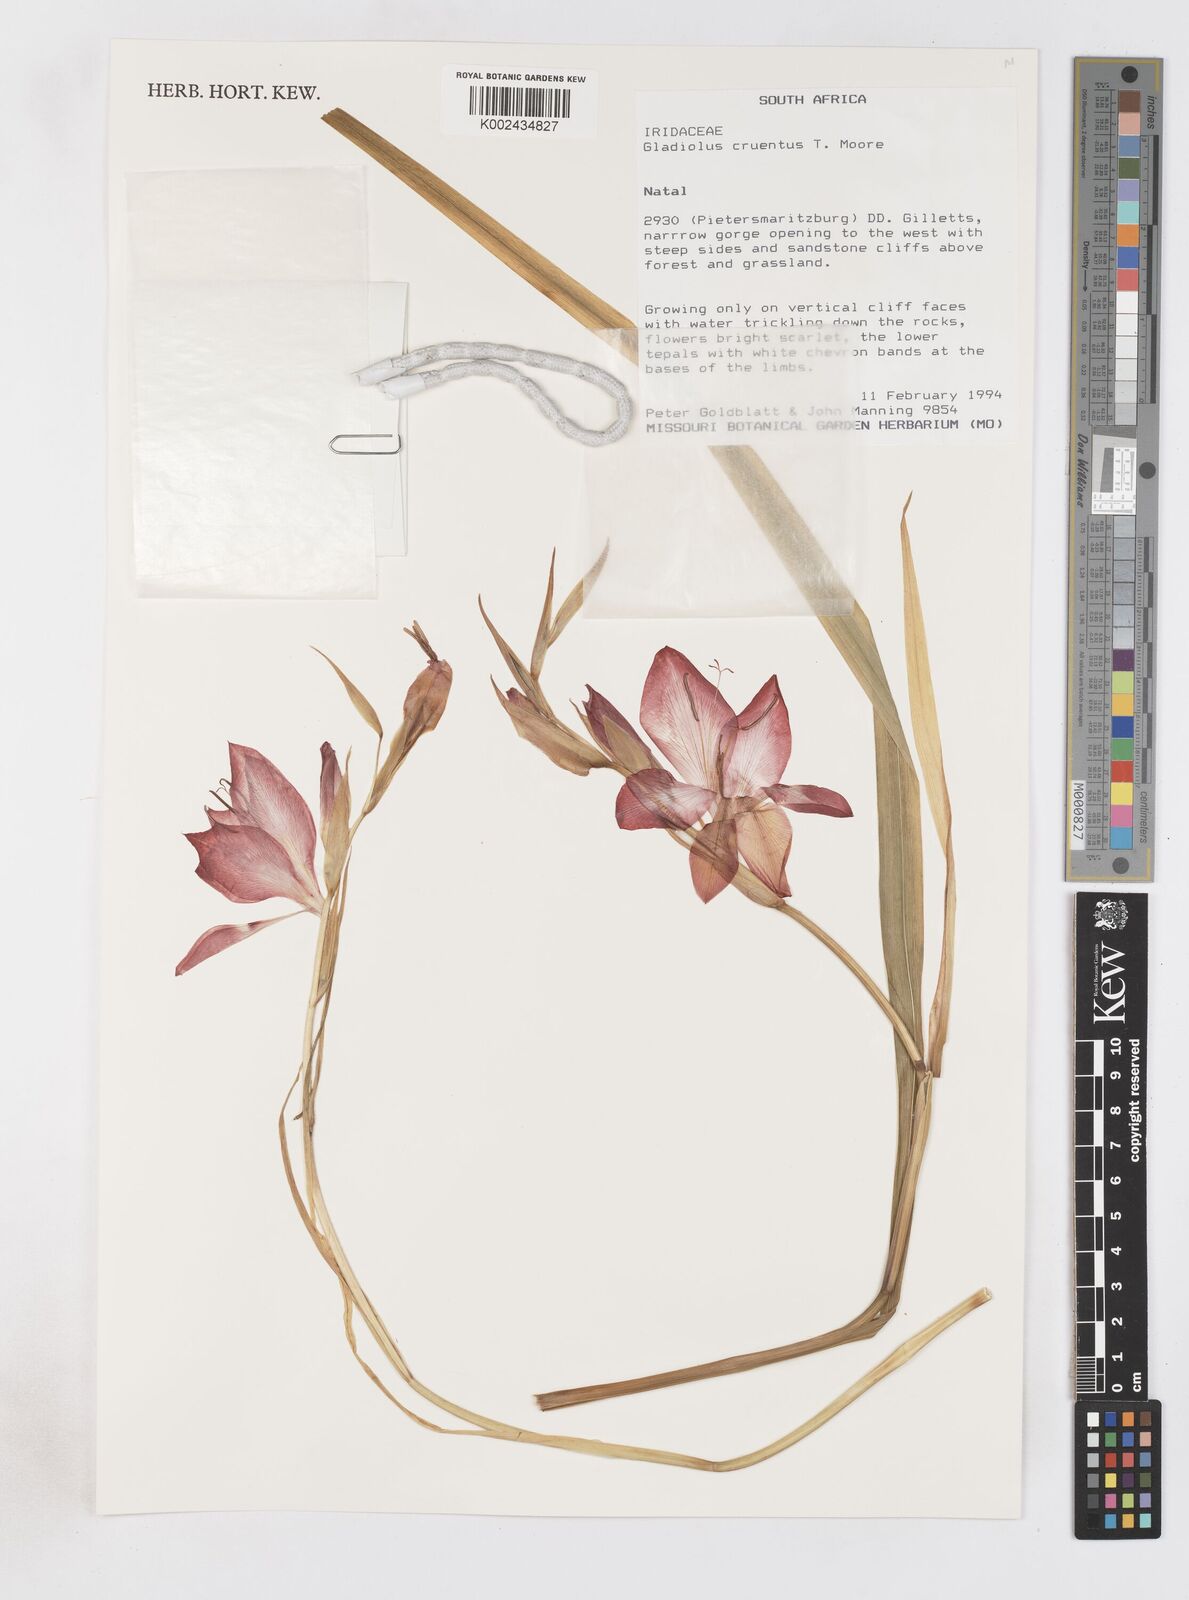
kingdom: Plantae
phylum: Tracheophyta
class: Liliopsida
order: Asparagales
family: Iridaceae
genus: Gladiolus
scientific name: Gladiolus cruentus
